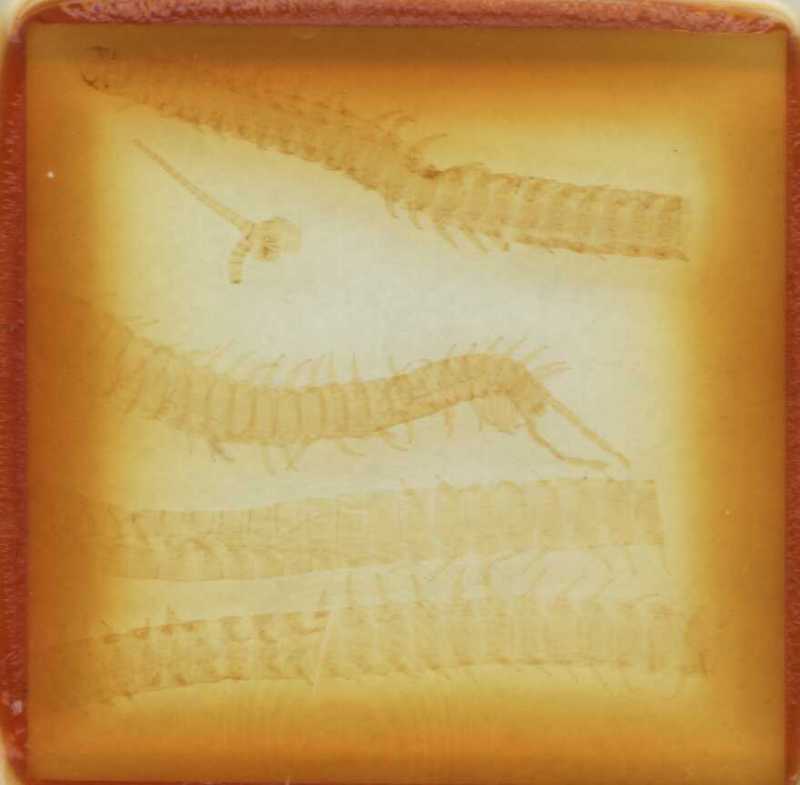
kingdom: Animalia
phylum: Arthropoda
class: Chilopoda
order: Geophilomorpha
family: Geophilidae
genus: Tweediphilus
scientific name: Tweediphilus malaccanus
